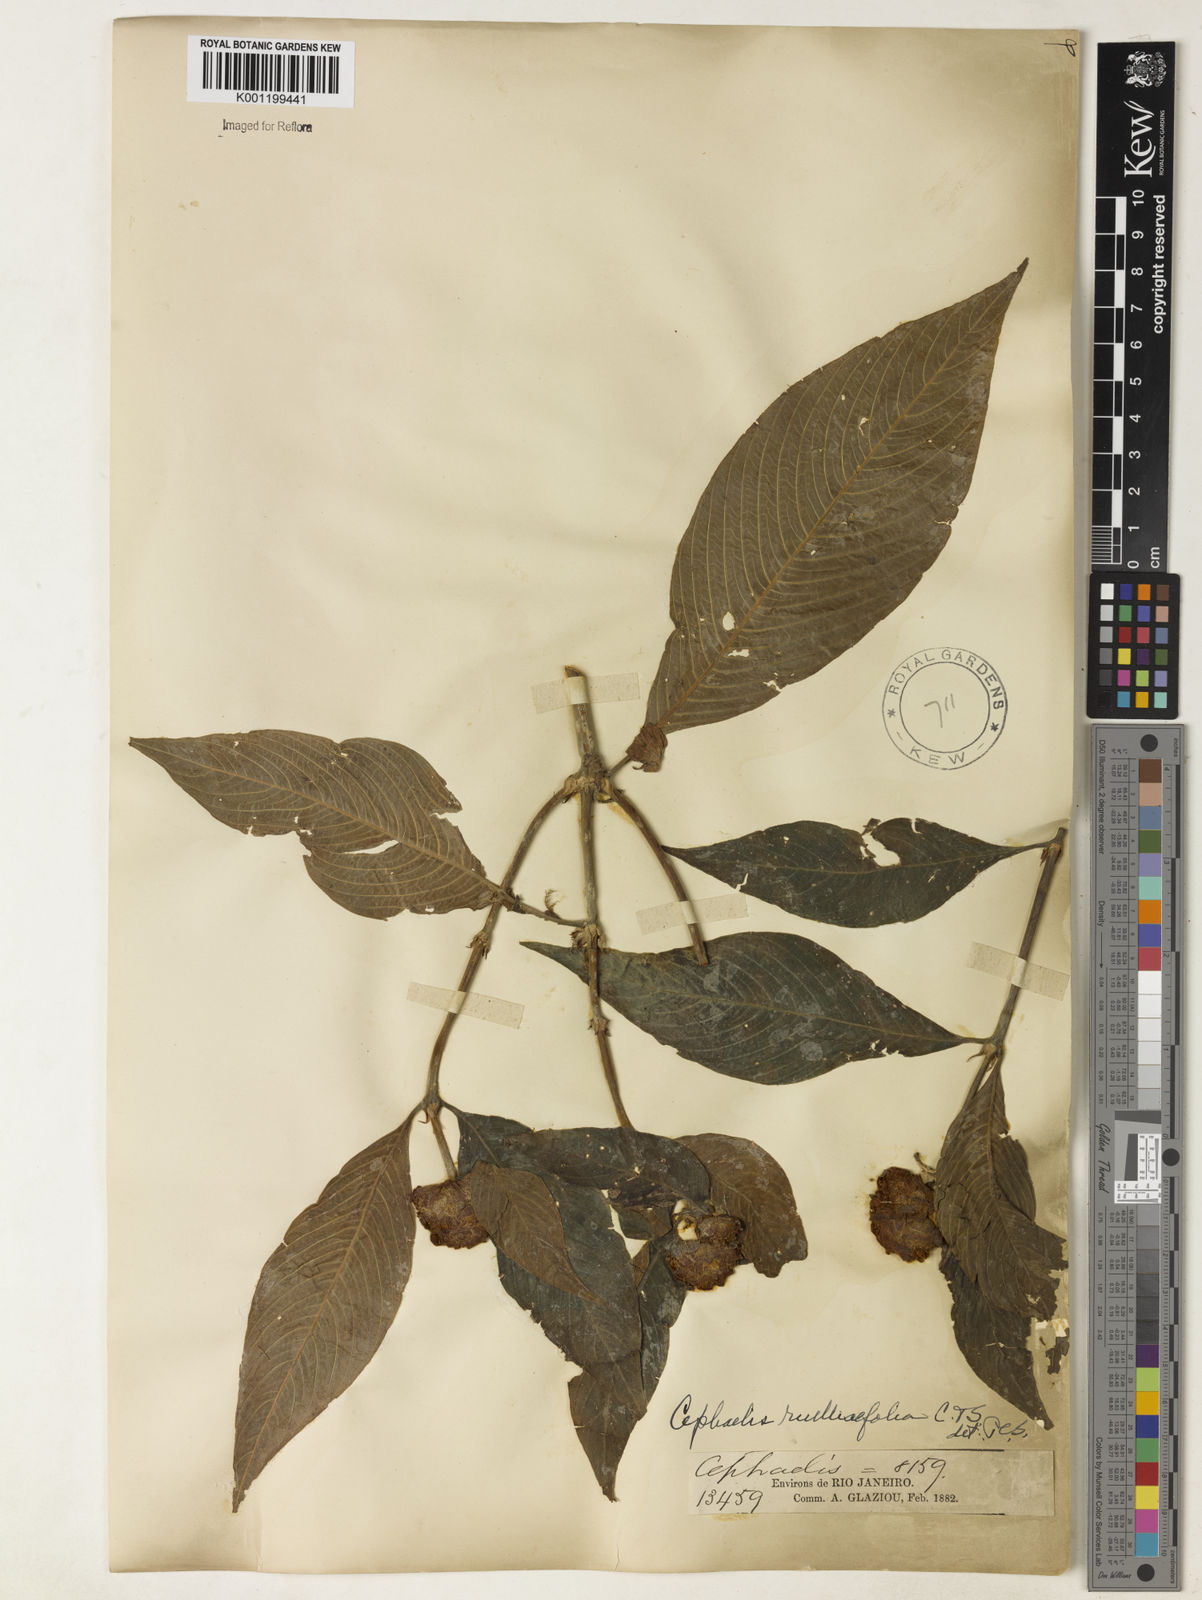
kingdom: Plantae
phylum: Tracheophyta
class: Magnoliopsida
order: Gentianales
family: Rubiaceae
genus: Psychotria
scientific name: Psychotria
